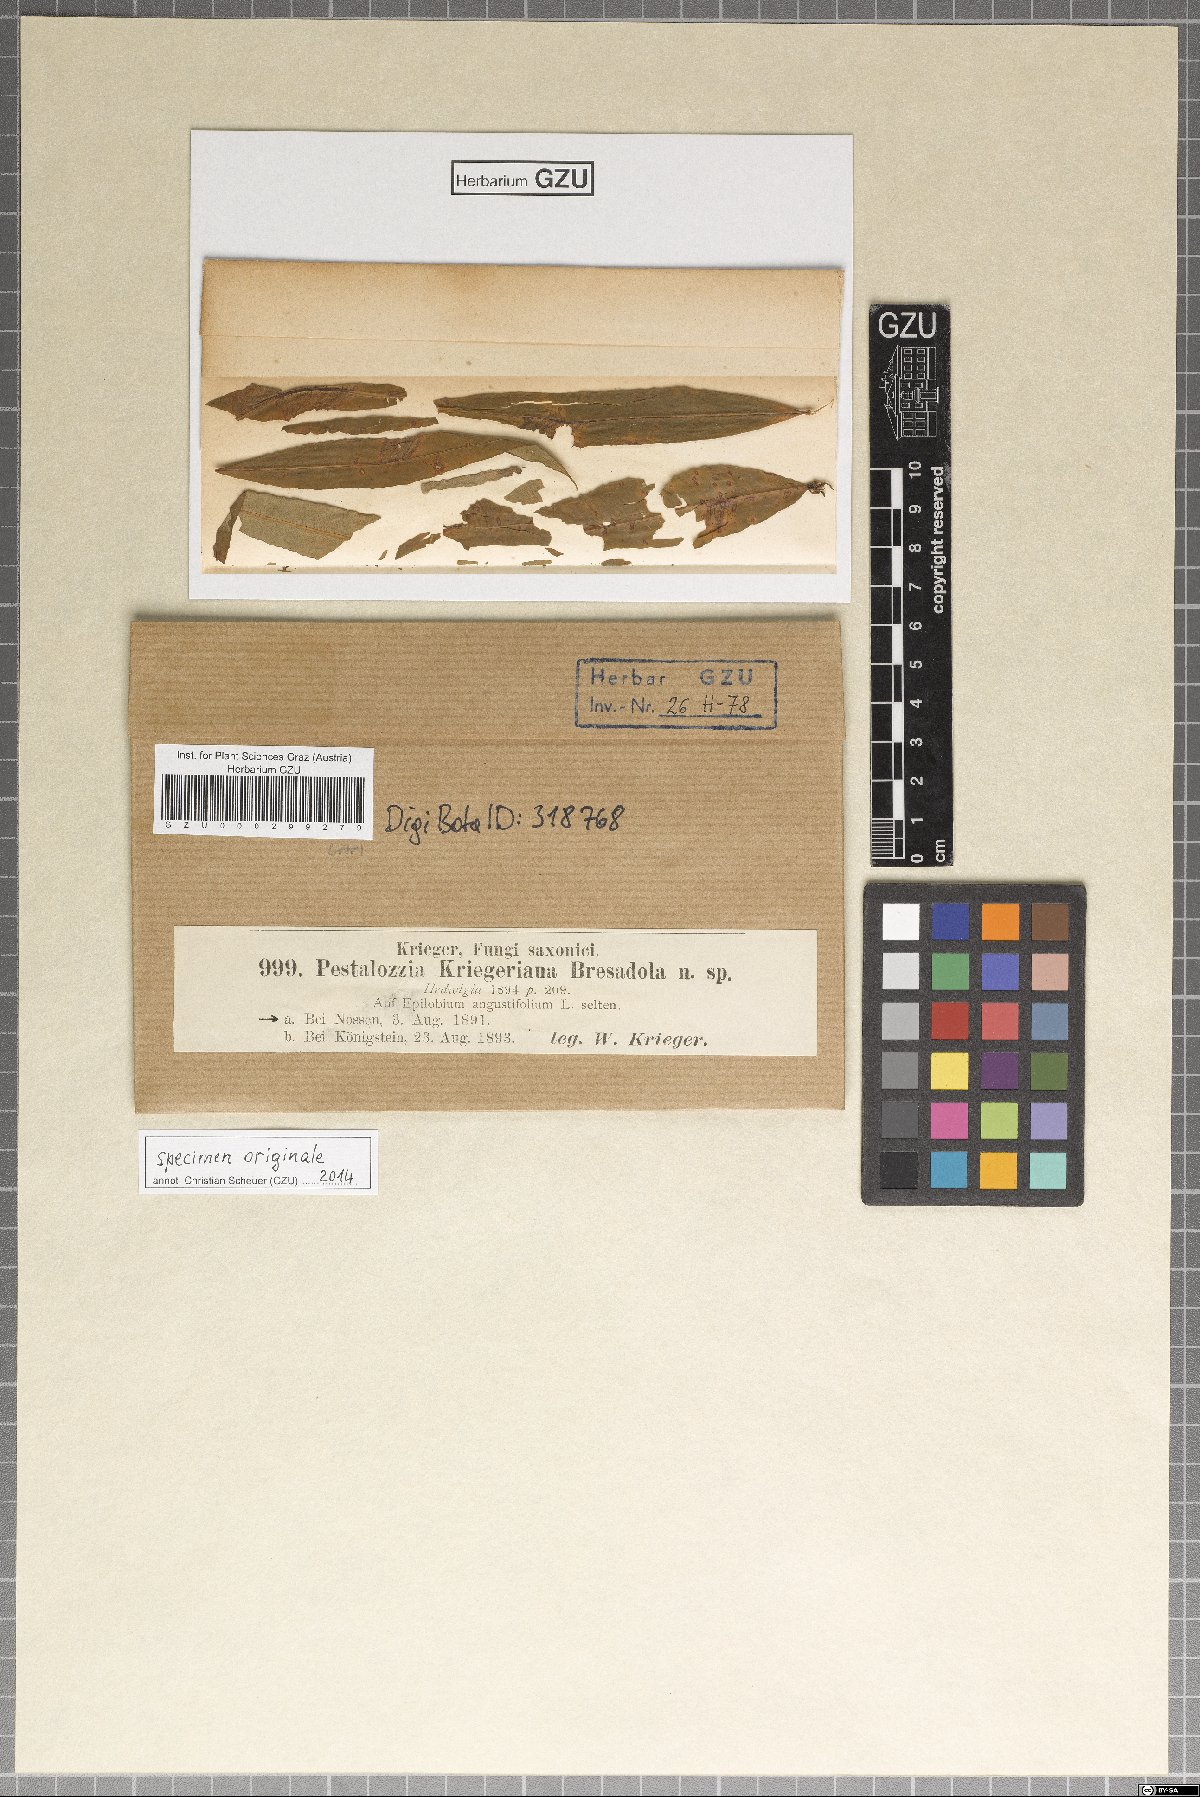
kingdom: Fungi
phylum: Ascomycota
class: Sordariomycetes
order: Amphisphaeriales
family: Sporocadaceae
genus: Allelochaeta
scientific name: Allelochaeta kriegeriana
